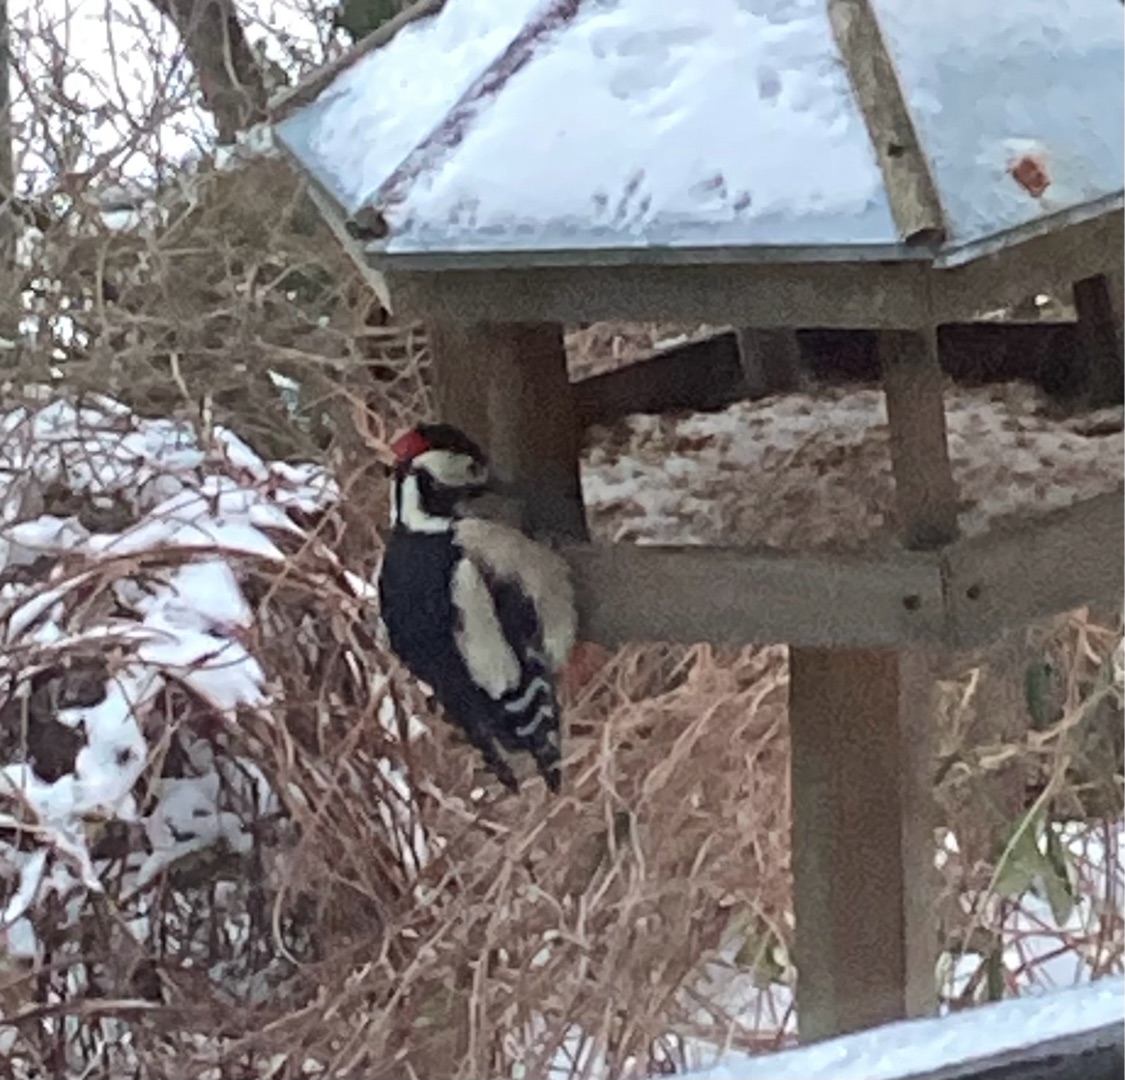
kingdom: Animalia
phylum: Chordata
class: Aves
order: Piciformes
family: Picidae
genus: Dendrocopos
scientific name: Dendrocopos major
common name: Stor flagspætte
